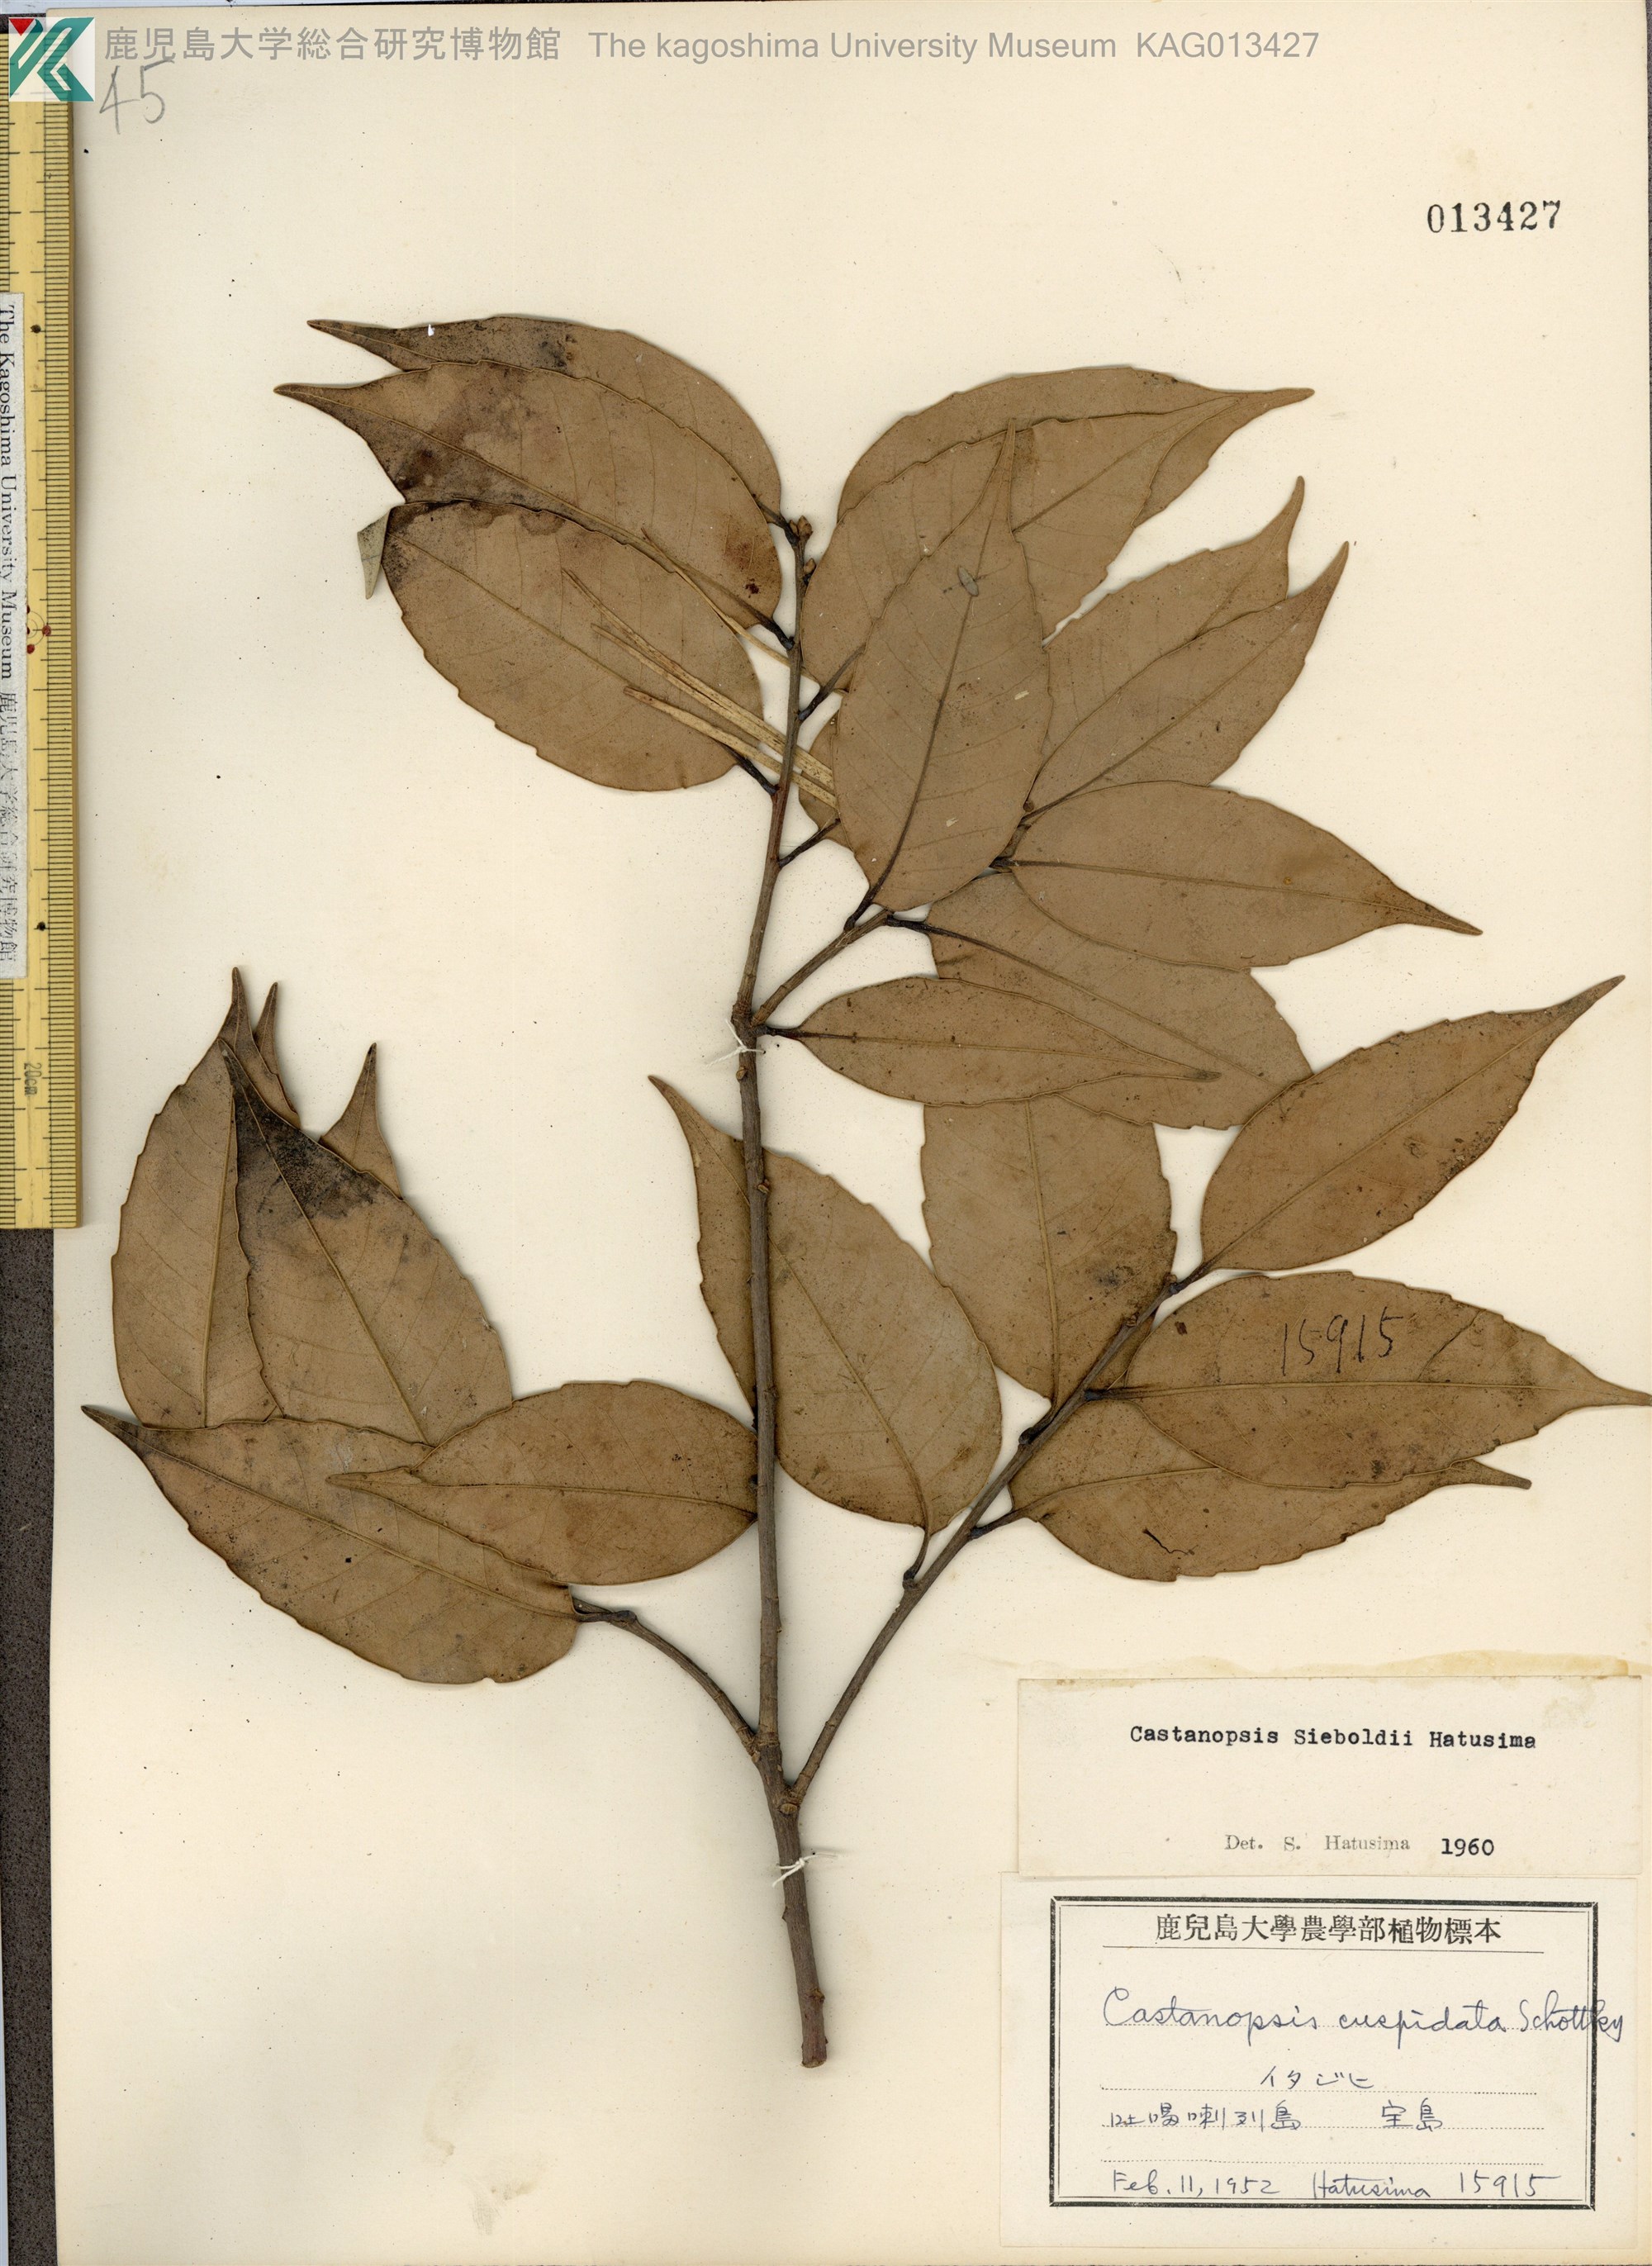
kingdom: Plantae
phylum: Tracheophyta
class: Magnoliopsida
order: Fagales
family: Fagaceae
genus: Castanopsis
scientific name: Castanopsis sieboldii
